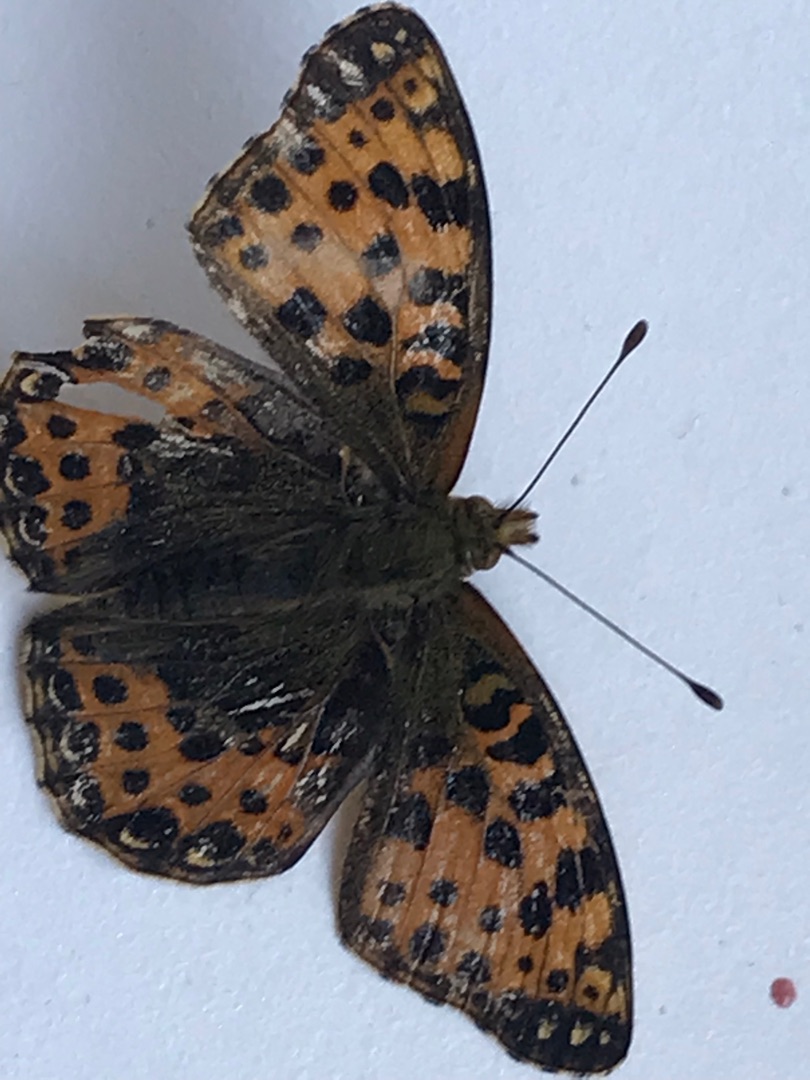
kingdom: Animalia
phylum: Arthropoda
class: Insecta
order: Lepidoptera
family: Nymphalidae
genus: Issoria
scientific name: Issoria lathonia
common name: Storplettet perlemorsommerfugl
